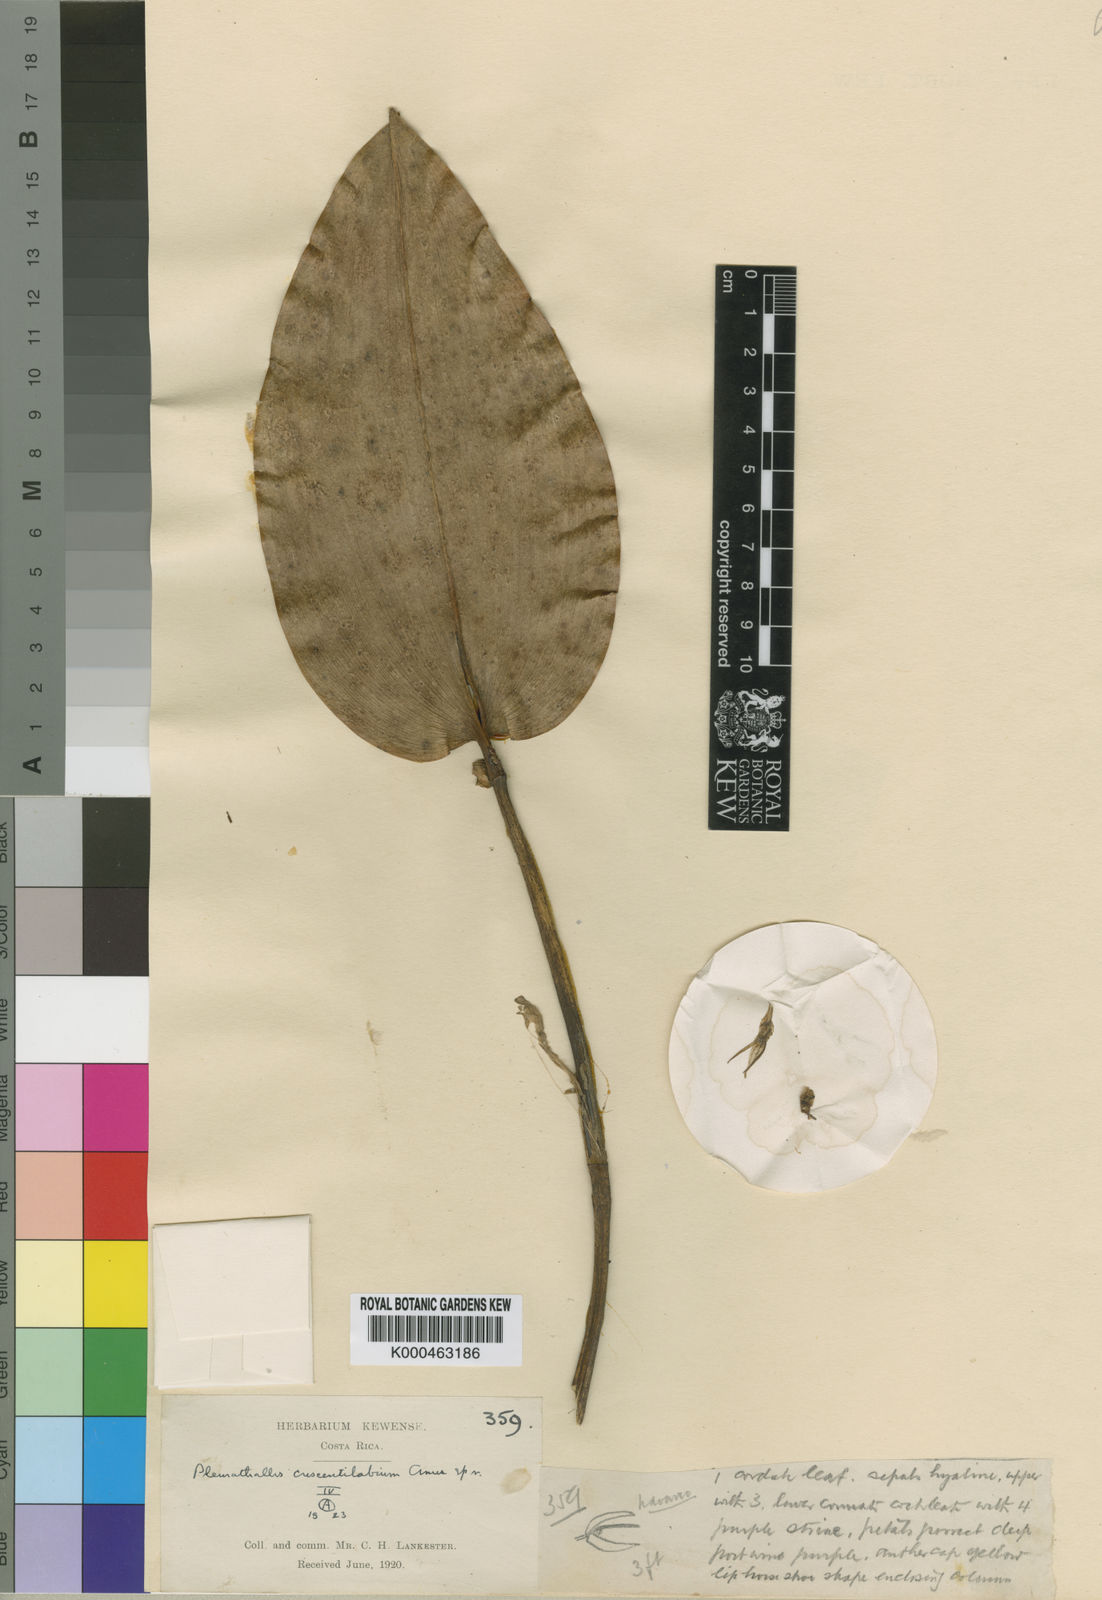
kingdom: Plantae
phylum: Tracheophyta
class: Liliopsida
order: Asparagales
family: Orchidaceae
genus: Pleurothallis
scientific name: Pleurothallis crescentilabia
